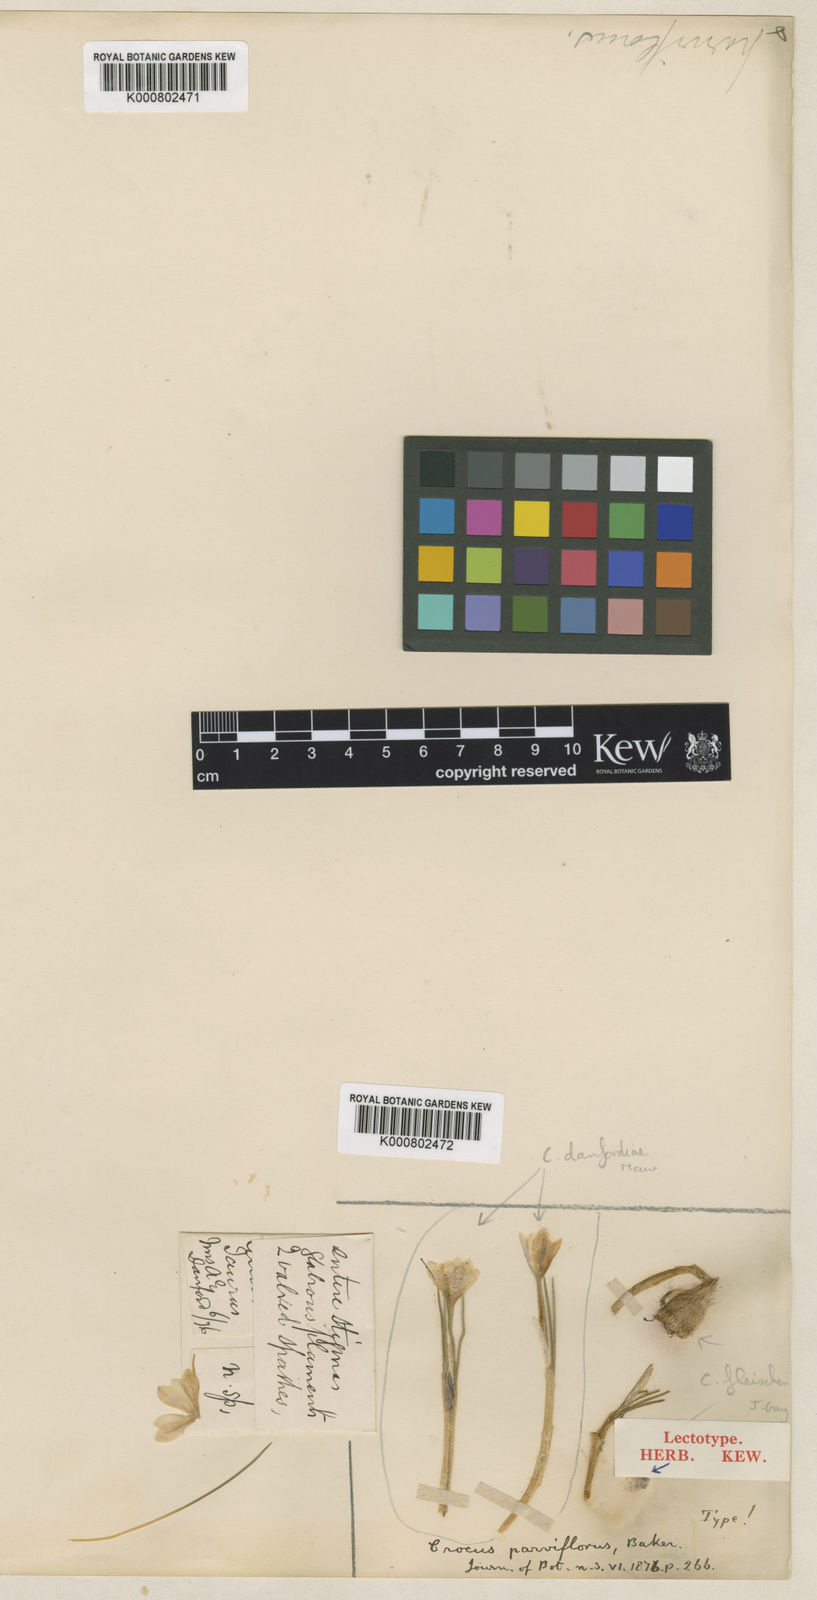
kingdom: Plantae
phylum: Tracheophyta
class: Liliopsida
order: Asparagales
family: Iridaceae
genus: Crocus
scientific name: Crocus fleischeri
